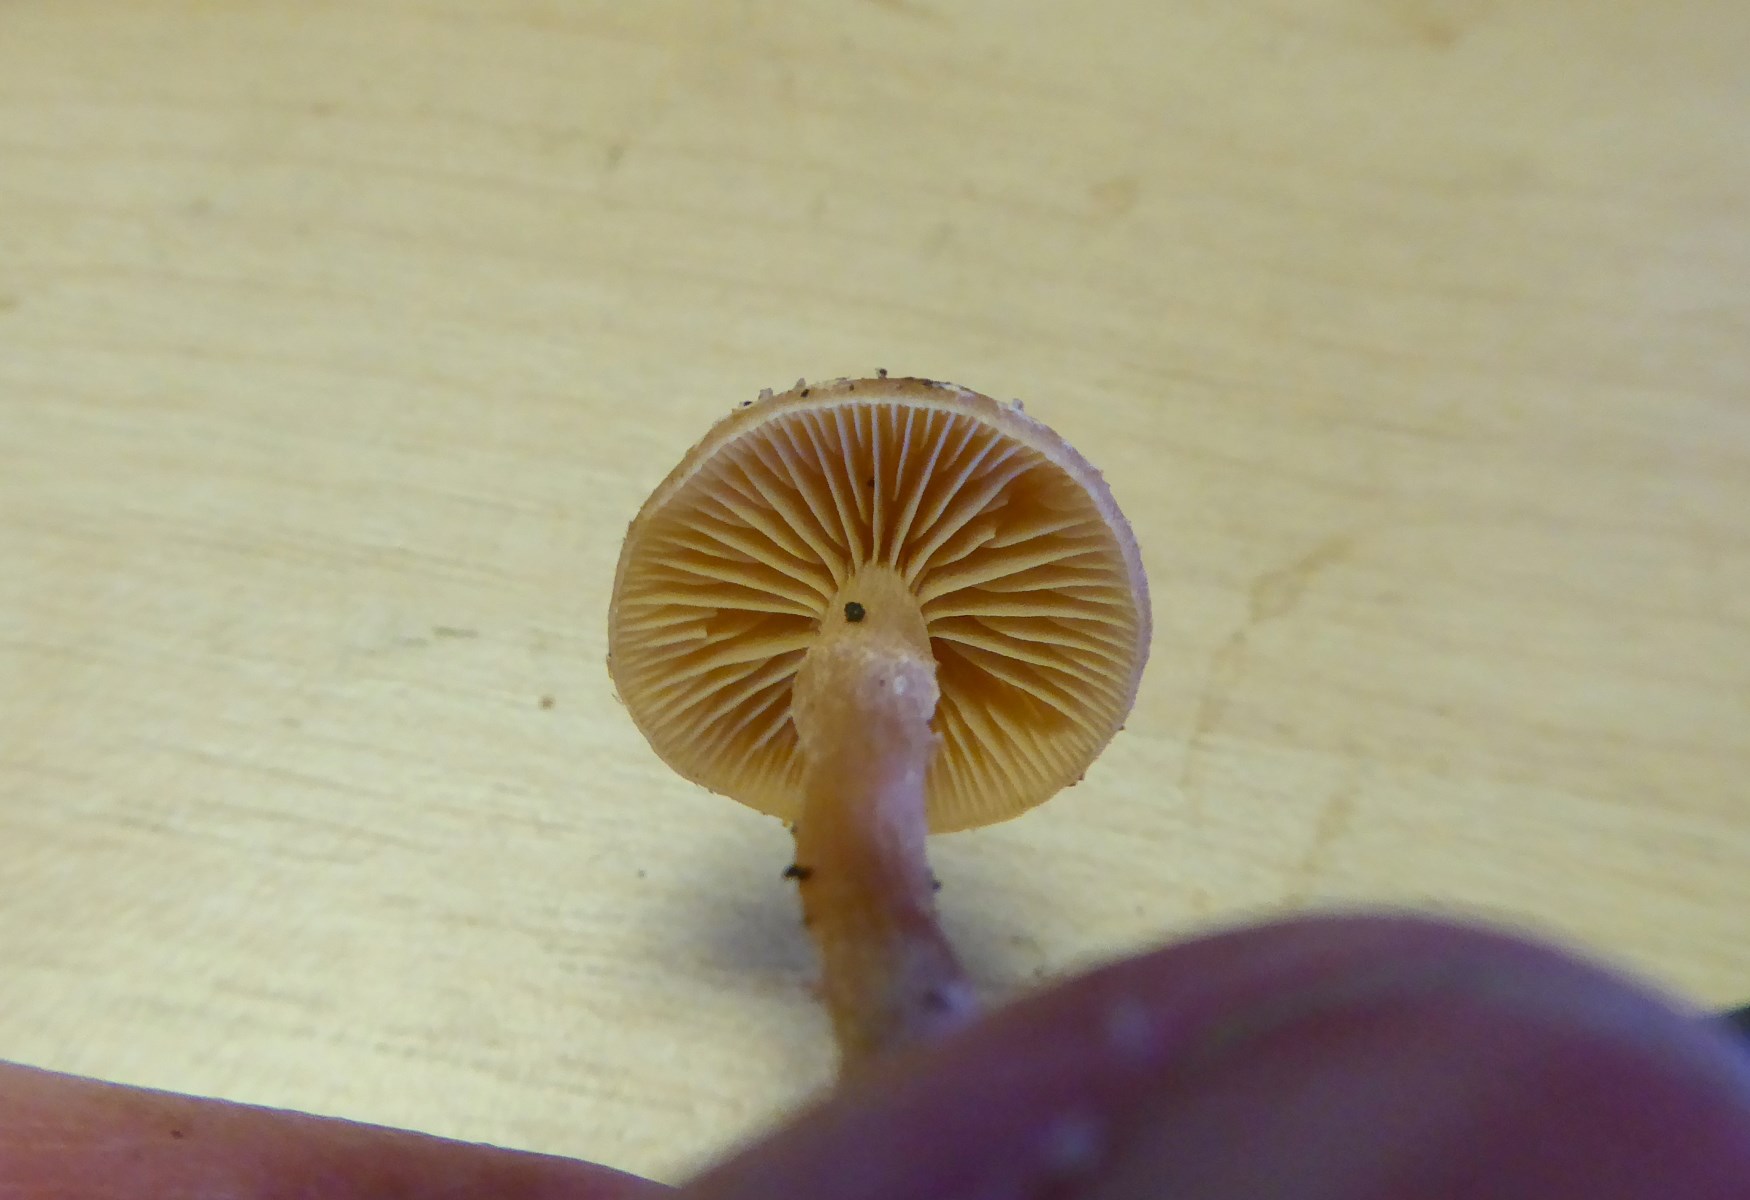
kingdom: Fungi
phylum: Basidiomycota
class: Agaricomycetes
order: Agaricales
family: Tubariaceae
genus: Tubaria
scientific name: Tubaria furfuracea
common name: kliddet fnughat
